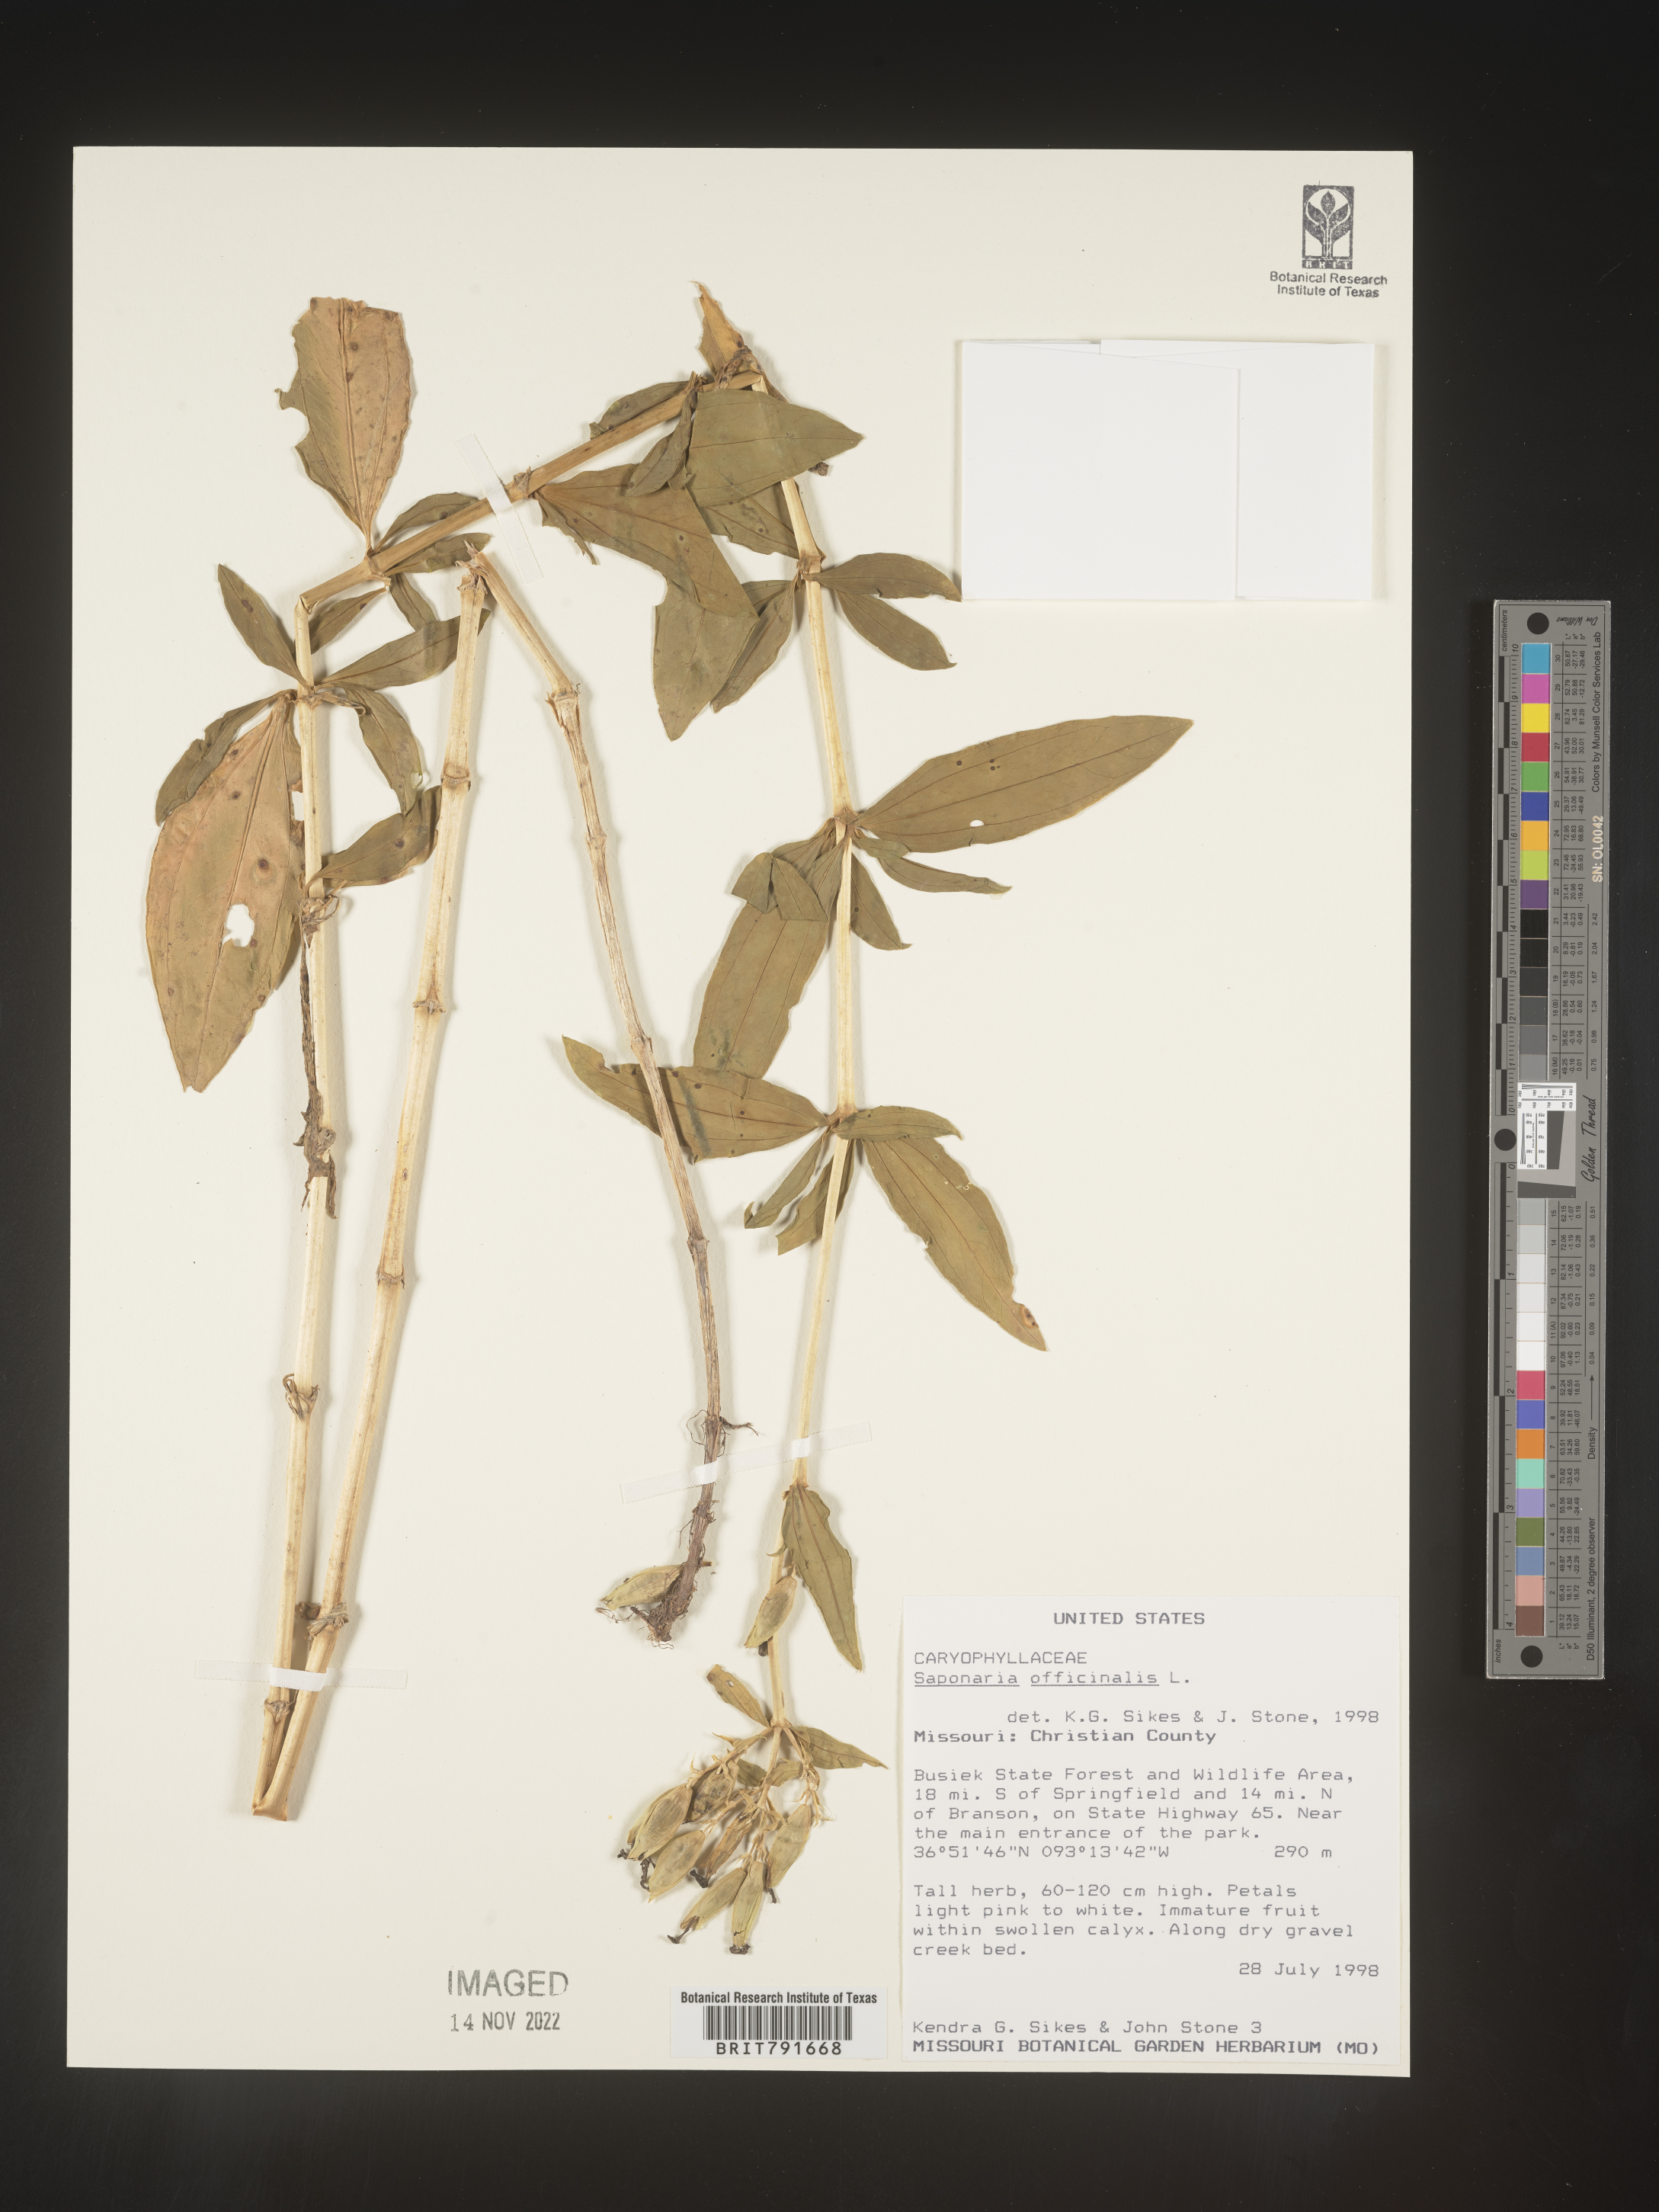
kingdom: Plantae
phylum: Tracheophyta
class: Magnoliopsida
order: Caryophyllales
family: Caryophyllaceae
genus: Saponaria
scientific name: Saponaria officinalis
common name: Soapwort
